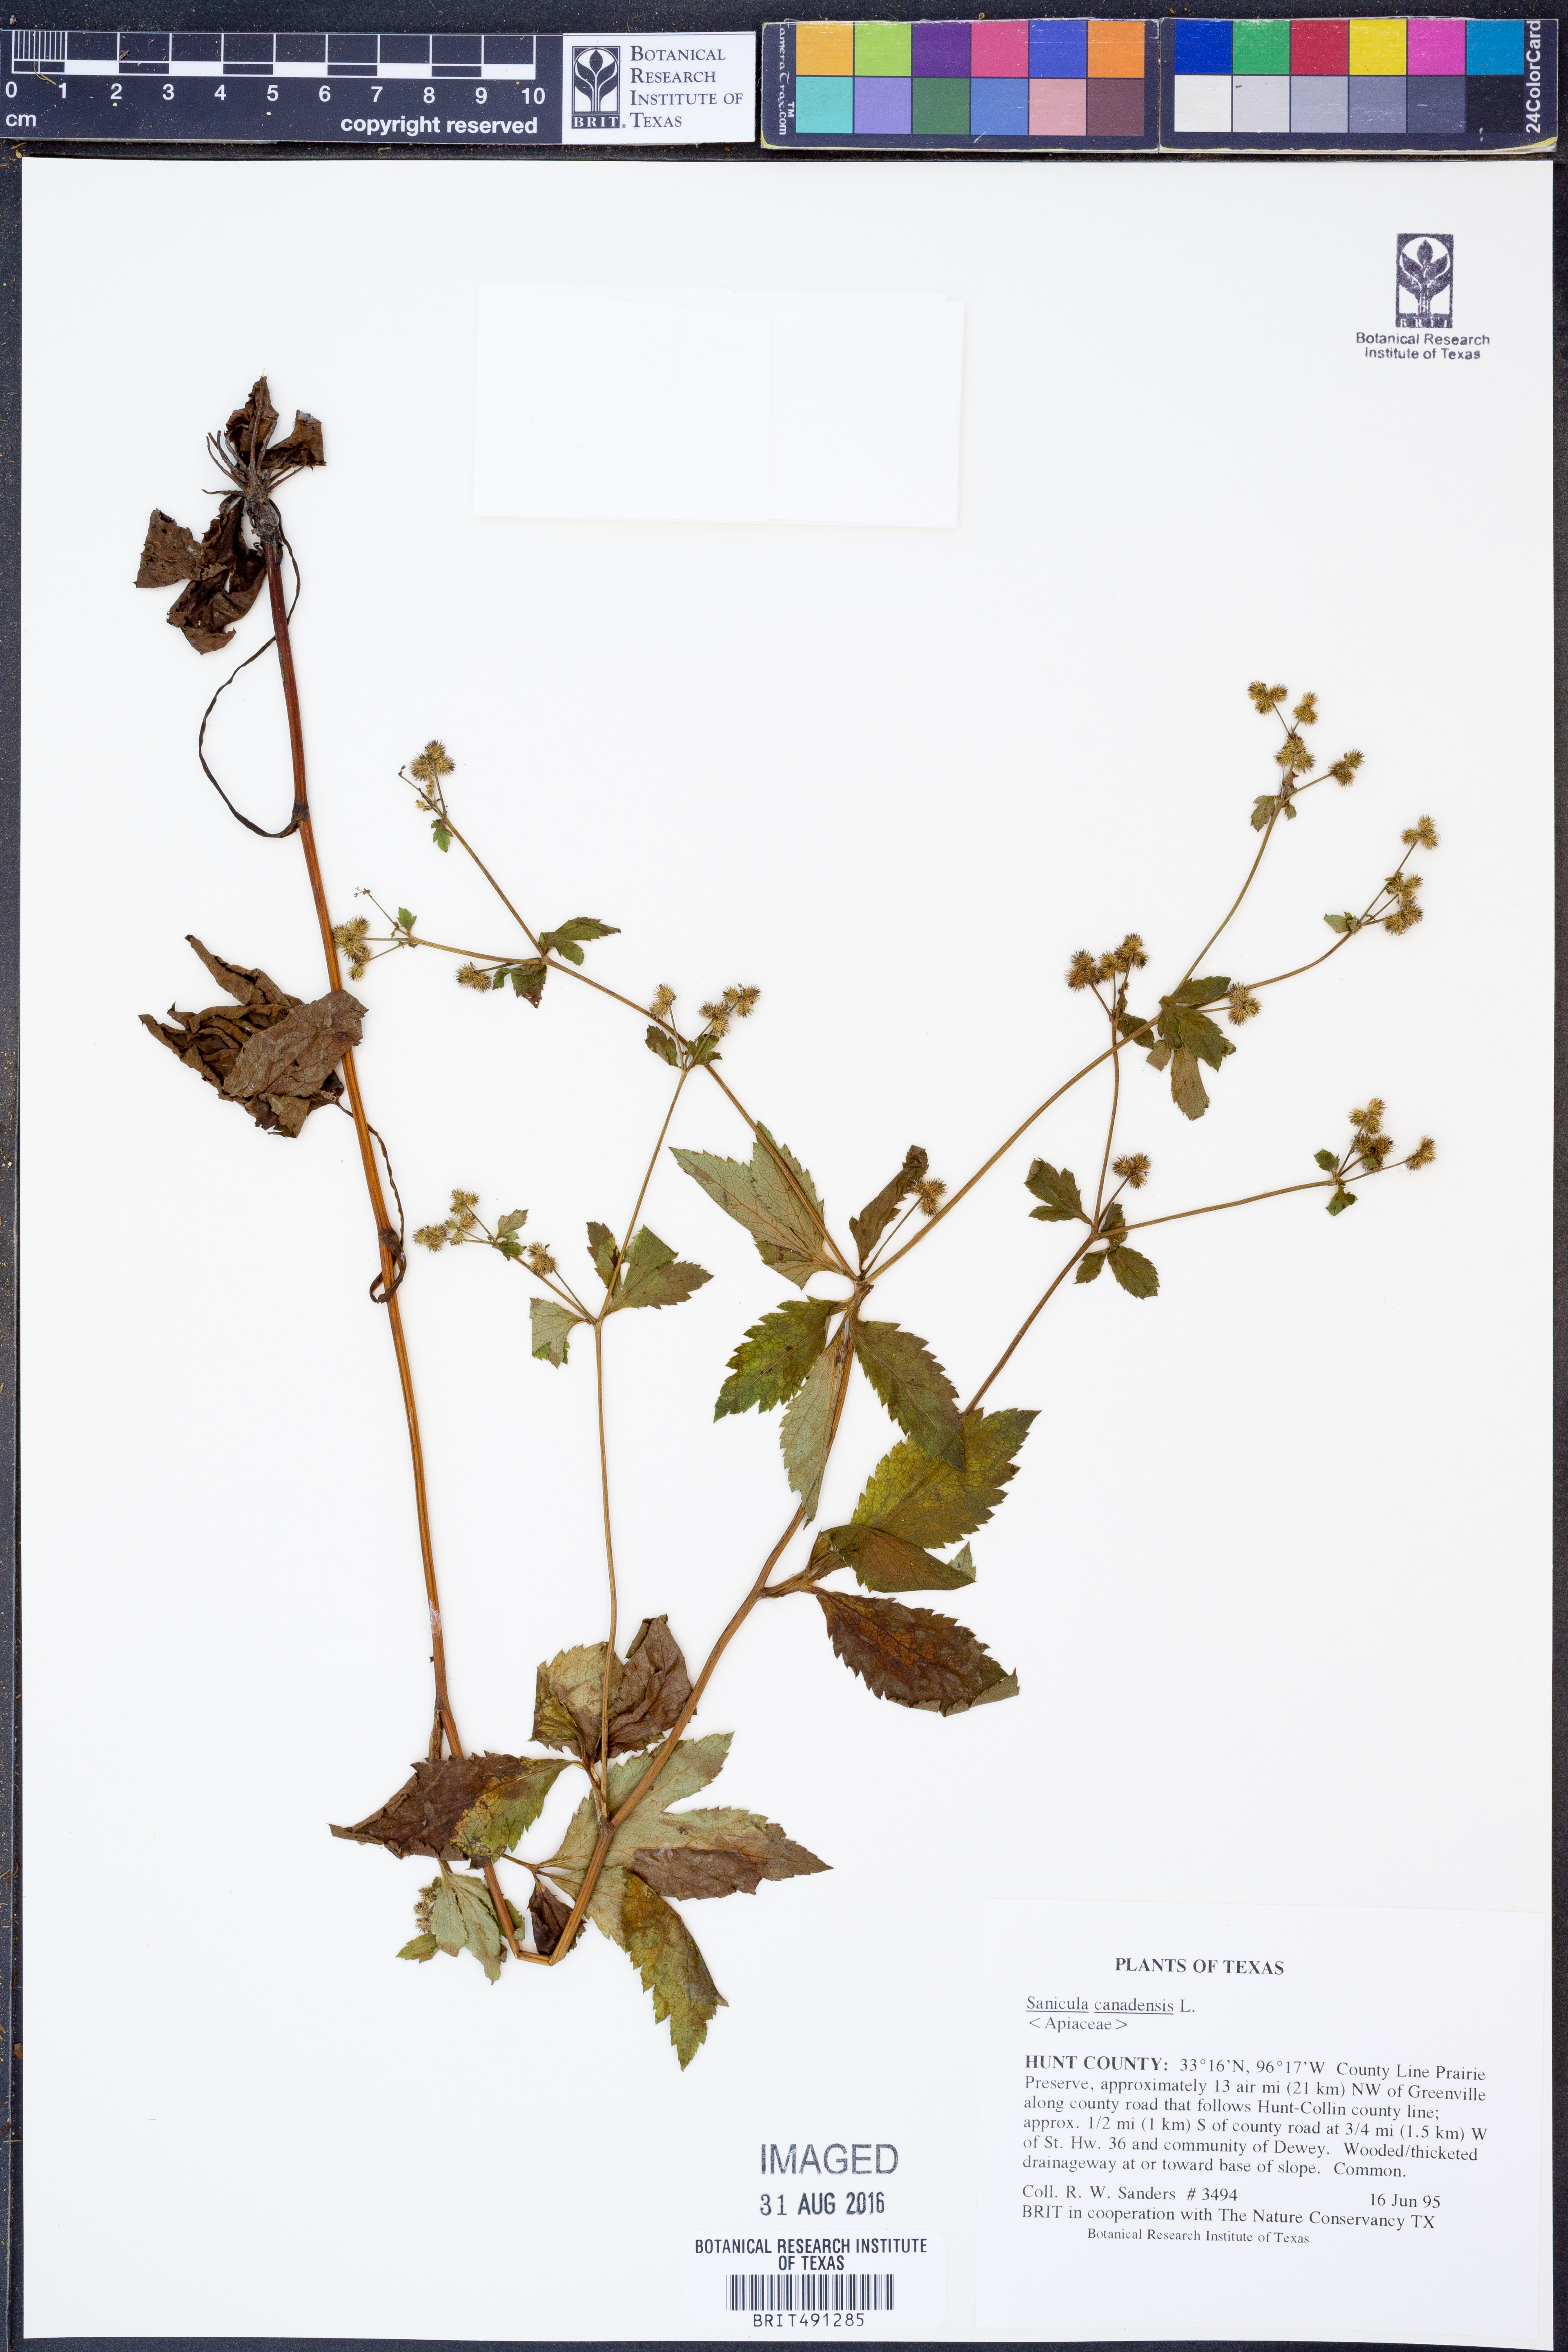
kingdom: Plantae
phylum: Tracheophyta
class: Magnoliopsida
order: Apiales
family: Apiaceae
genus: Sanicula
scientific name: Sanicula canadensis
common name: Canada sanicle
